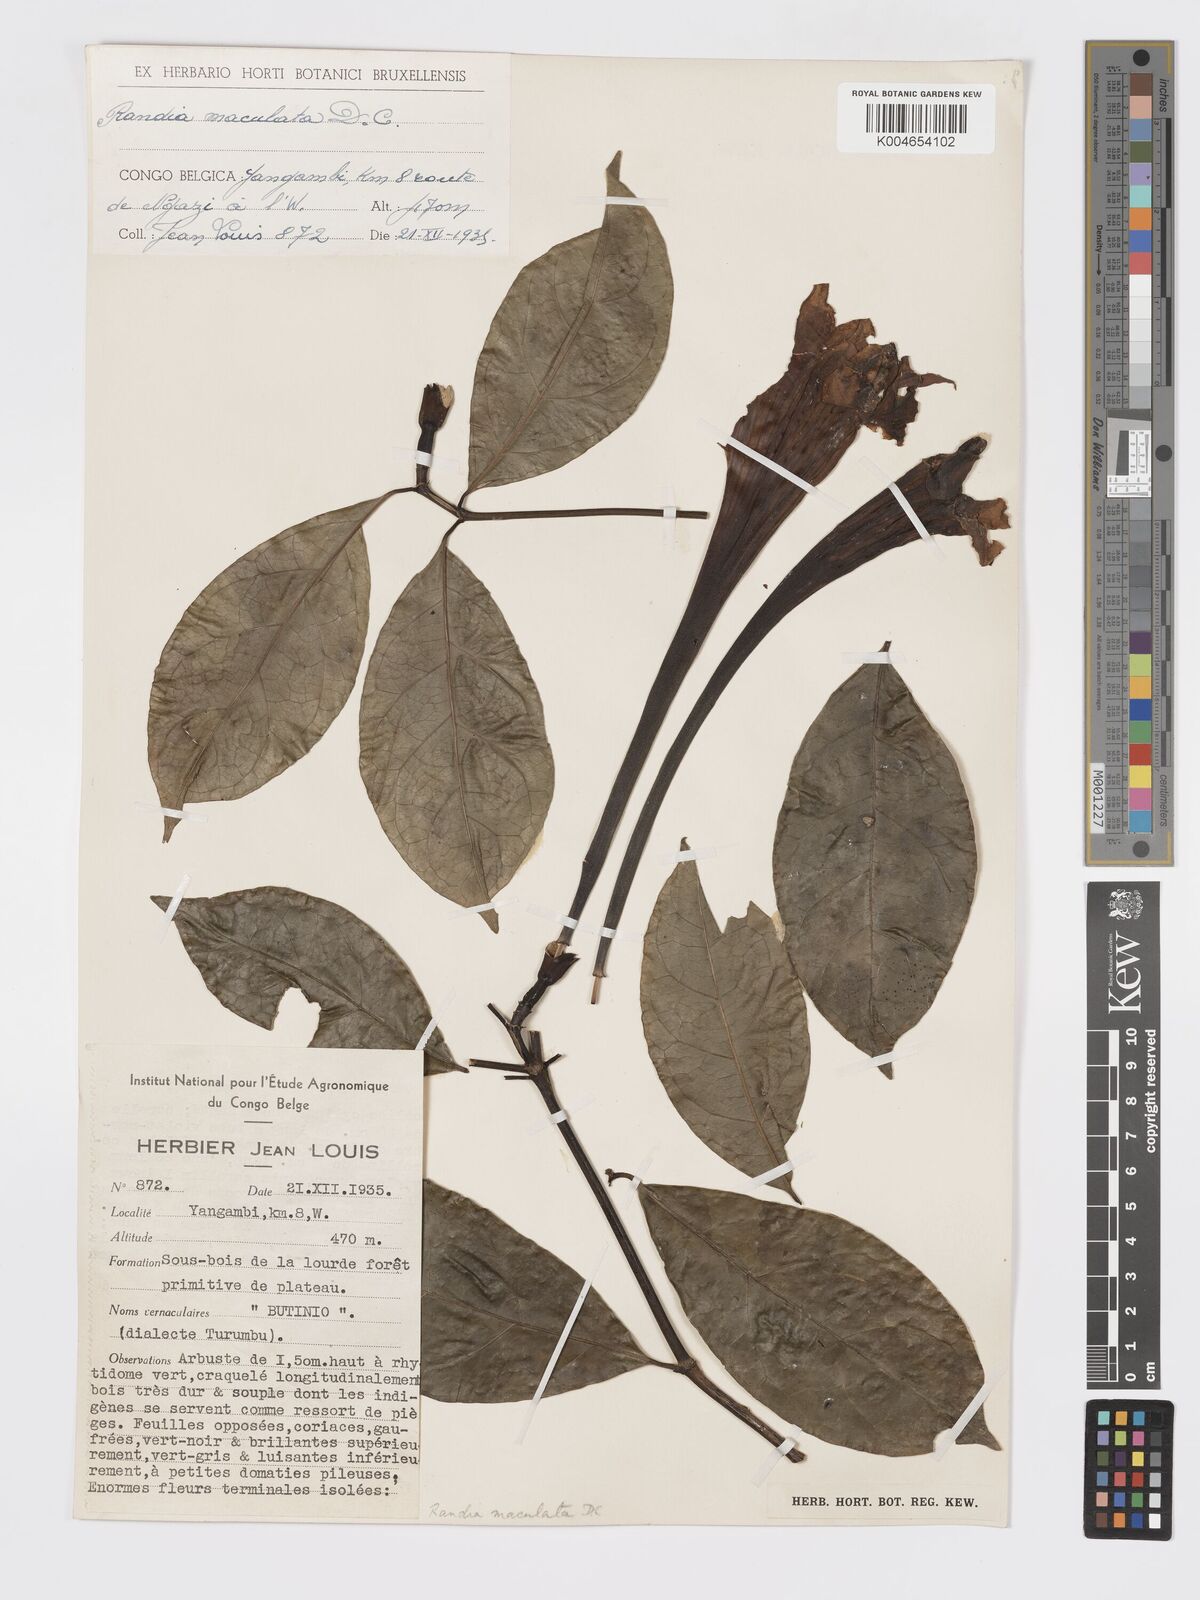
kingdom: Plantae
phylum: Tracheophyta
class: Magnoliopsida
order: Gentianales
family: Rubiaceae
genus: Rothmannia
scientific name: Rothmannia longiflora
